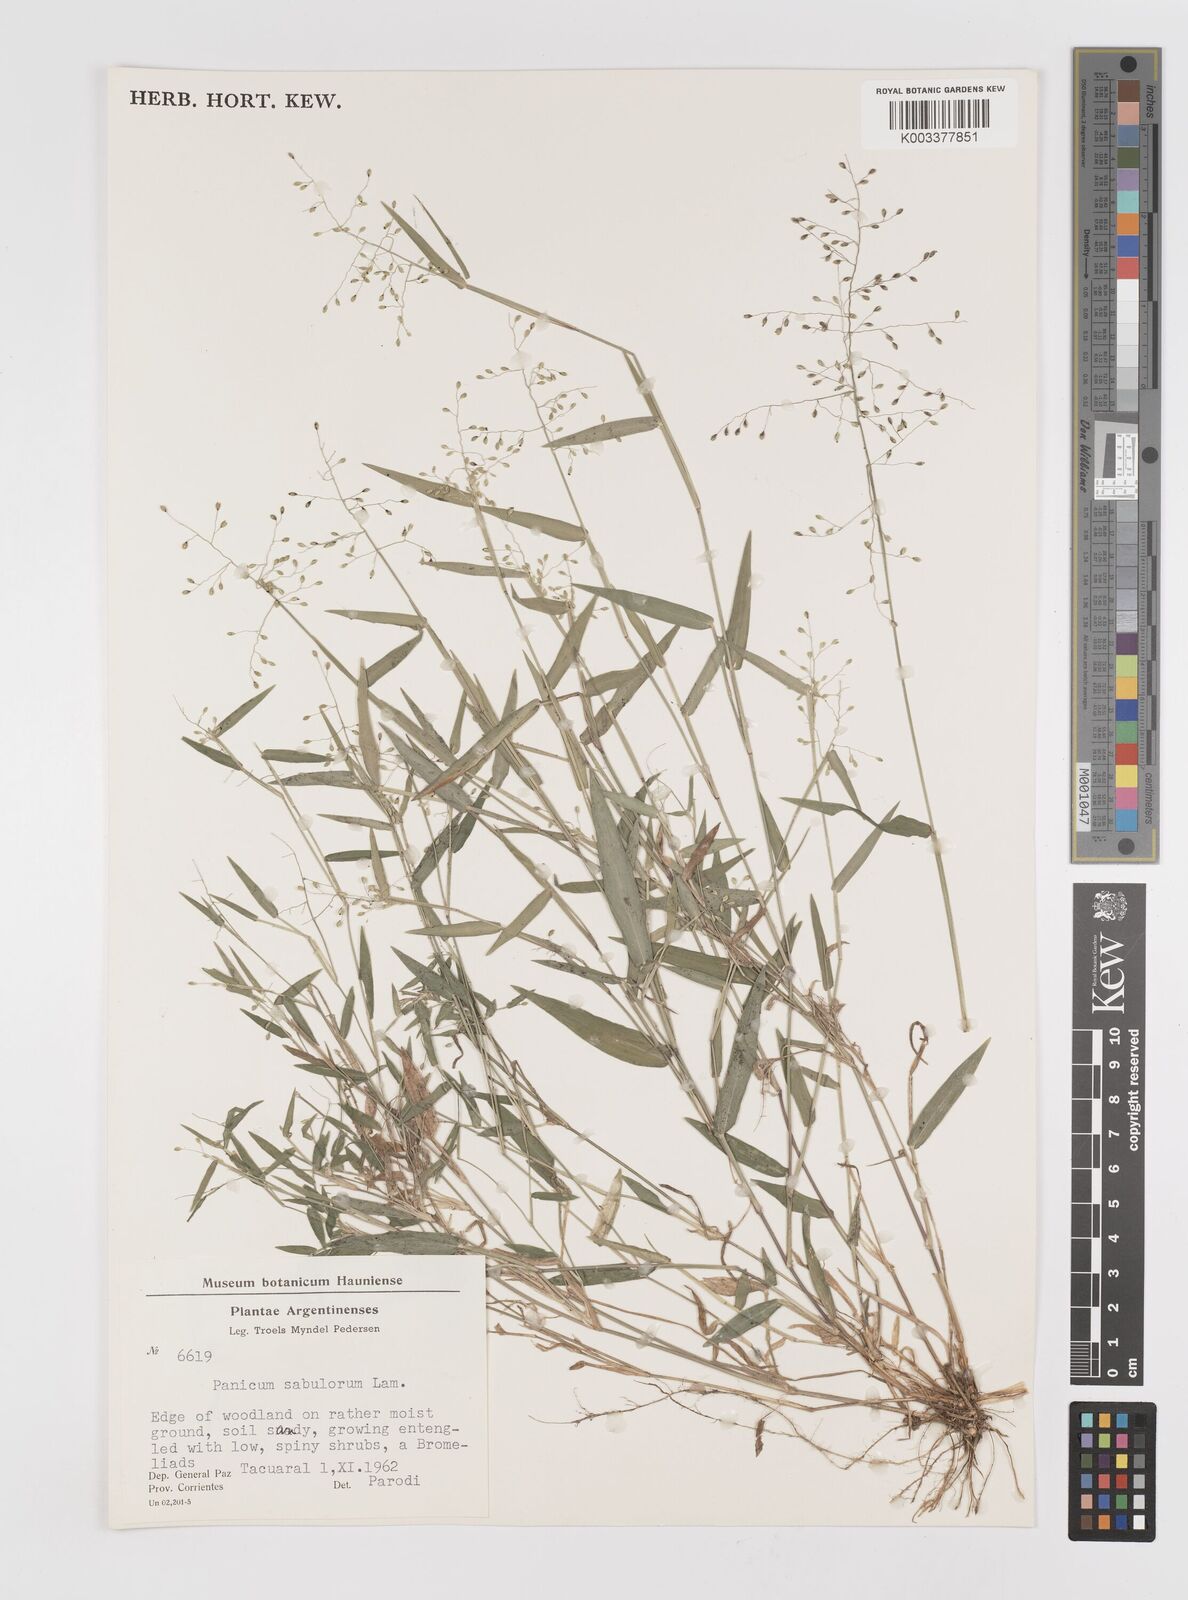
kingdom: Plantae
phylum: Tracheophyta
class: Liliopsida
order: Poales
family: Poaceae
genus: Dichanthelium
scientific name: Dichanthelium stigmosum
